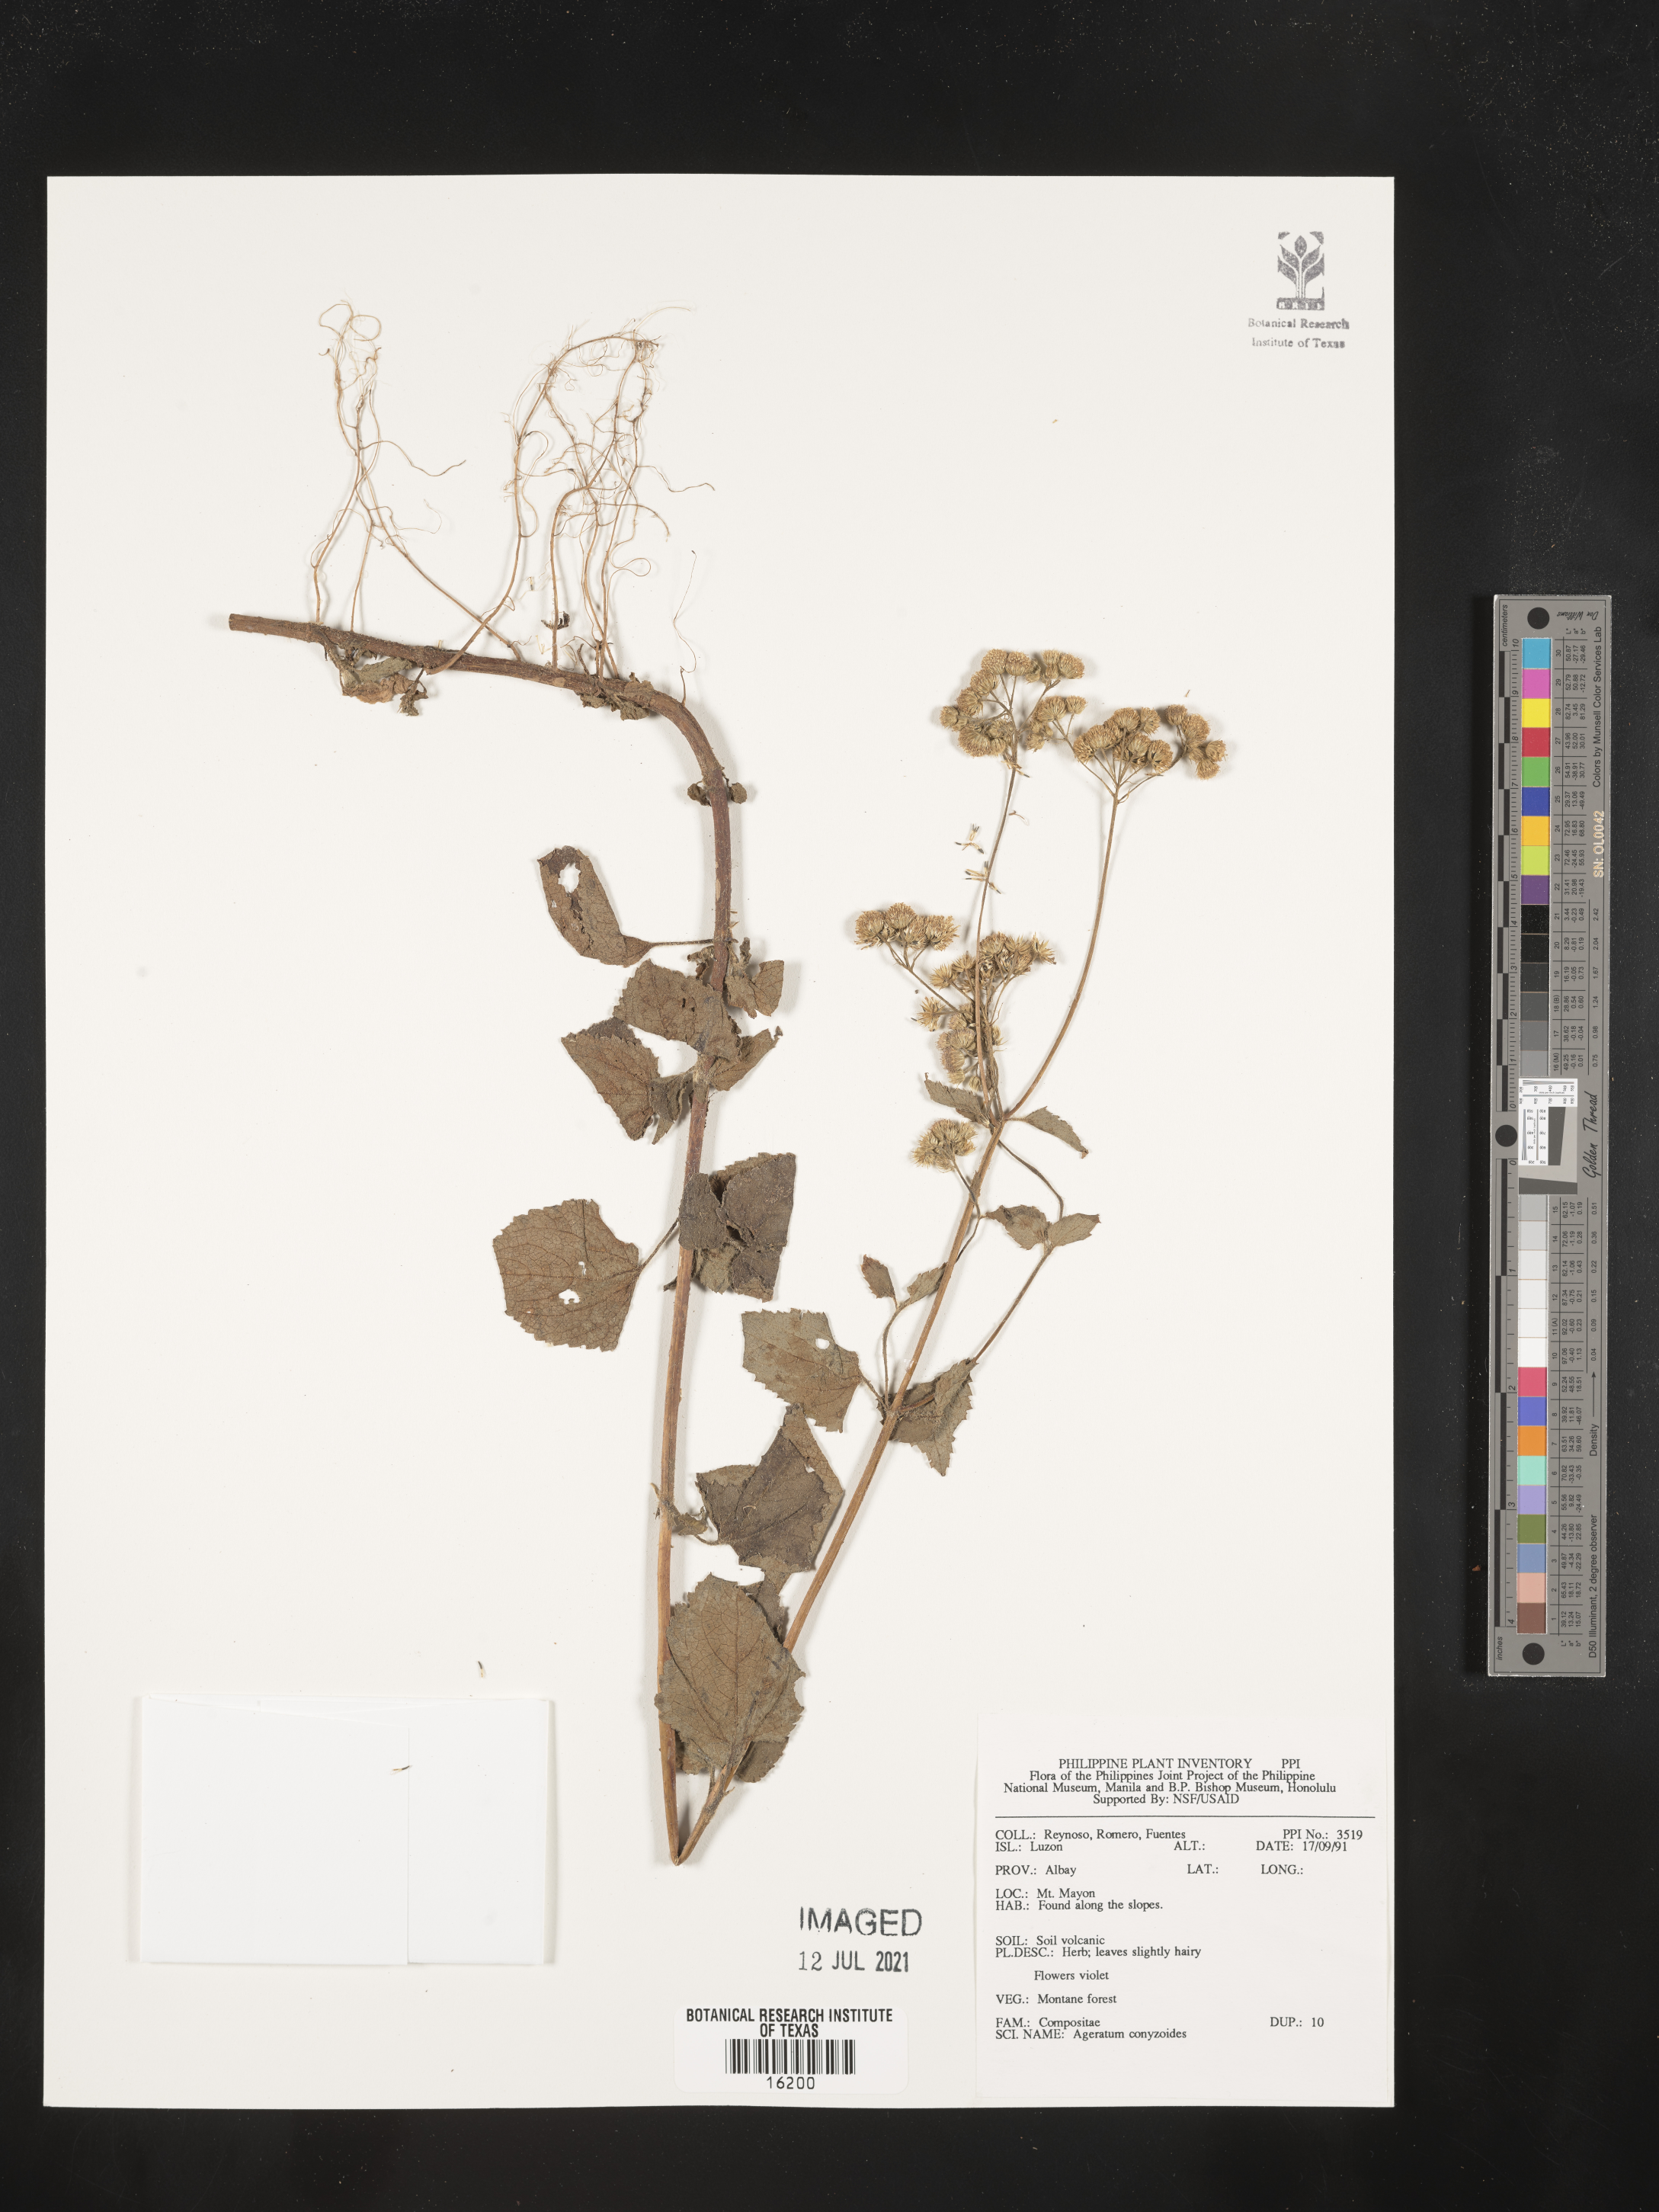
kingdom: Plantae
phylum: Tracheophyta
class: Magnoliopsida
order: Asterales
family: Asteraceae
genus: Chromolaena
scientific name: Chromolaena corymbosa
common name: Caribbean thoroughwort
